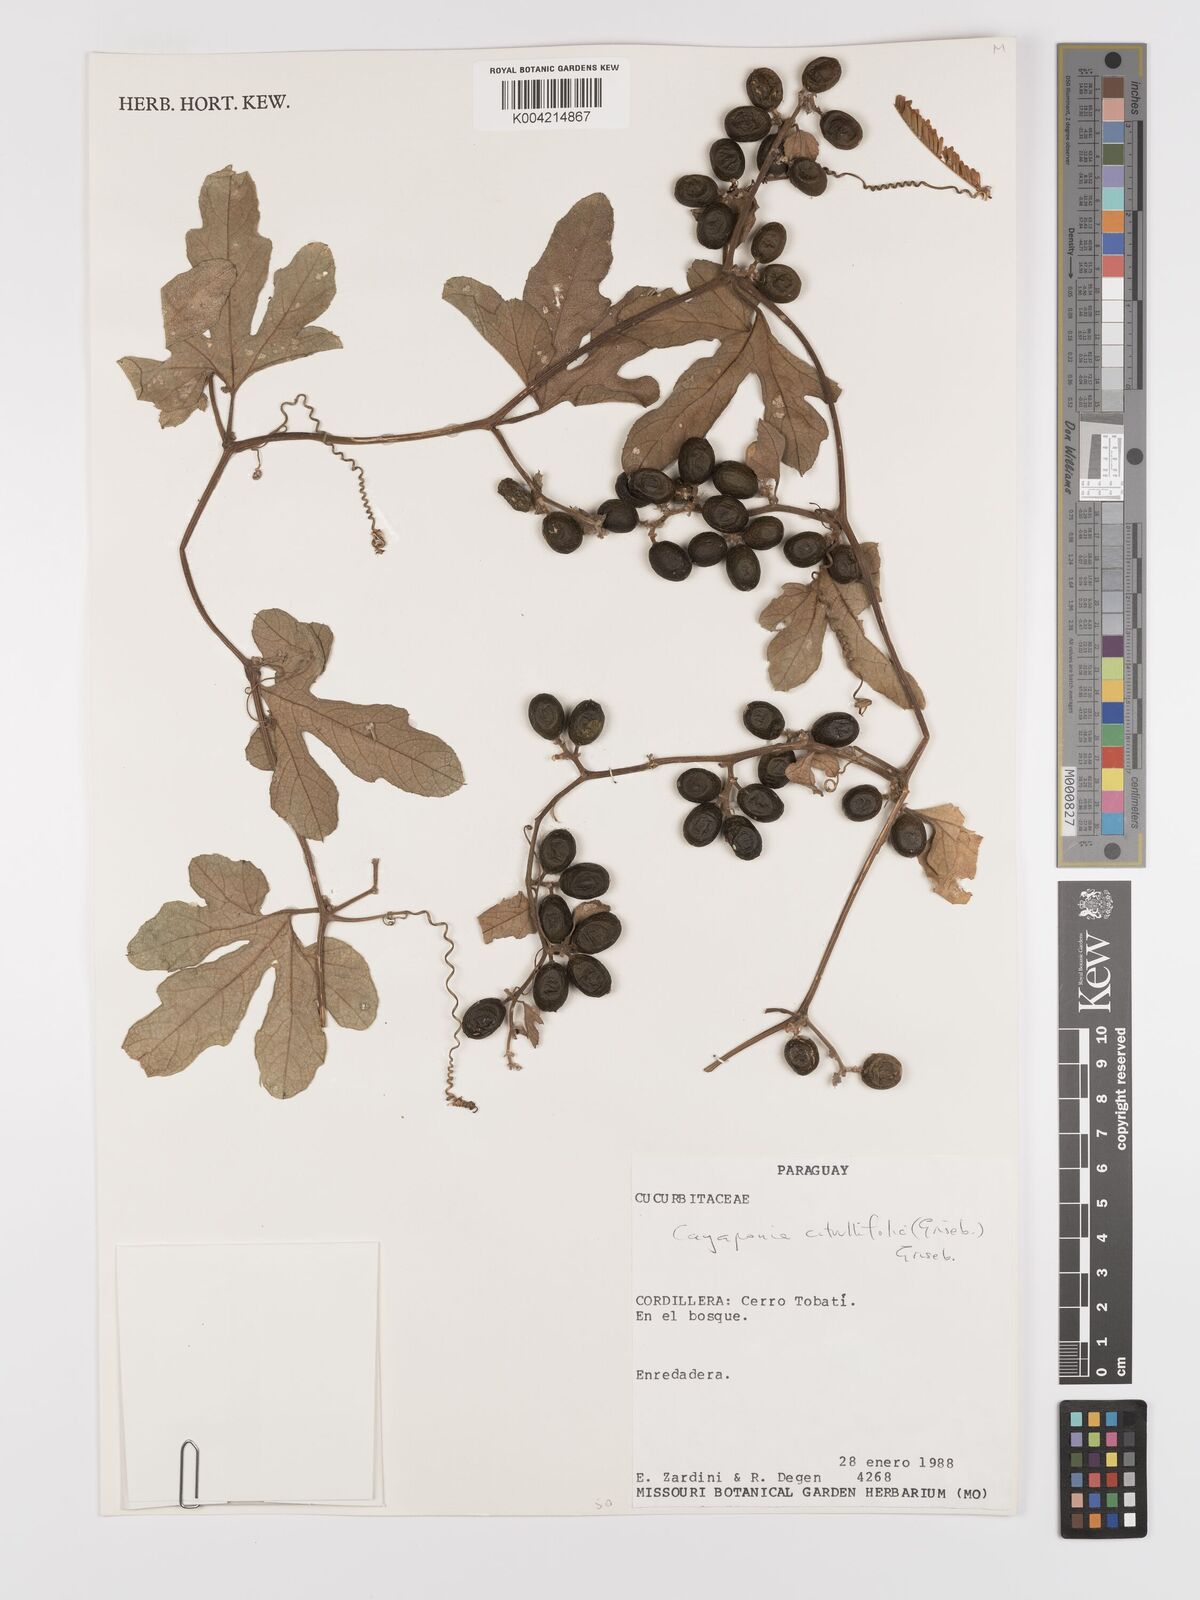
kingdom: Plantae
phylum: Tracheophyta
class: Magnoliopsida
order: Cucurbitales
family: Cucurbitaceae
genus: Cayaponia
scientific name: Cayaponia citrullifolia
